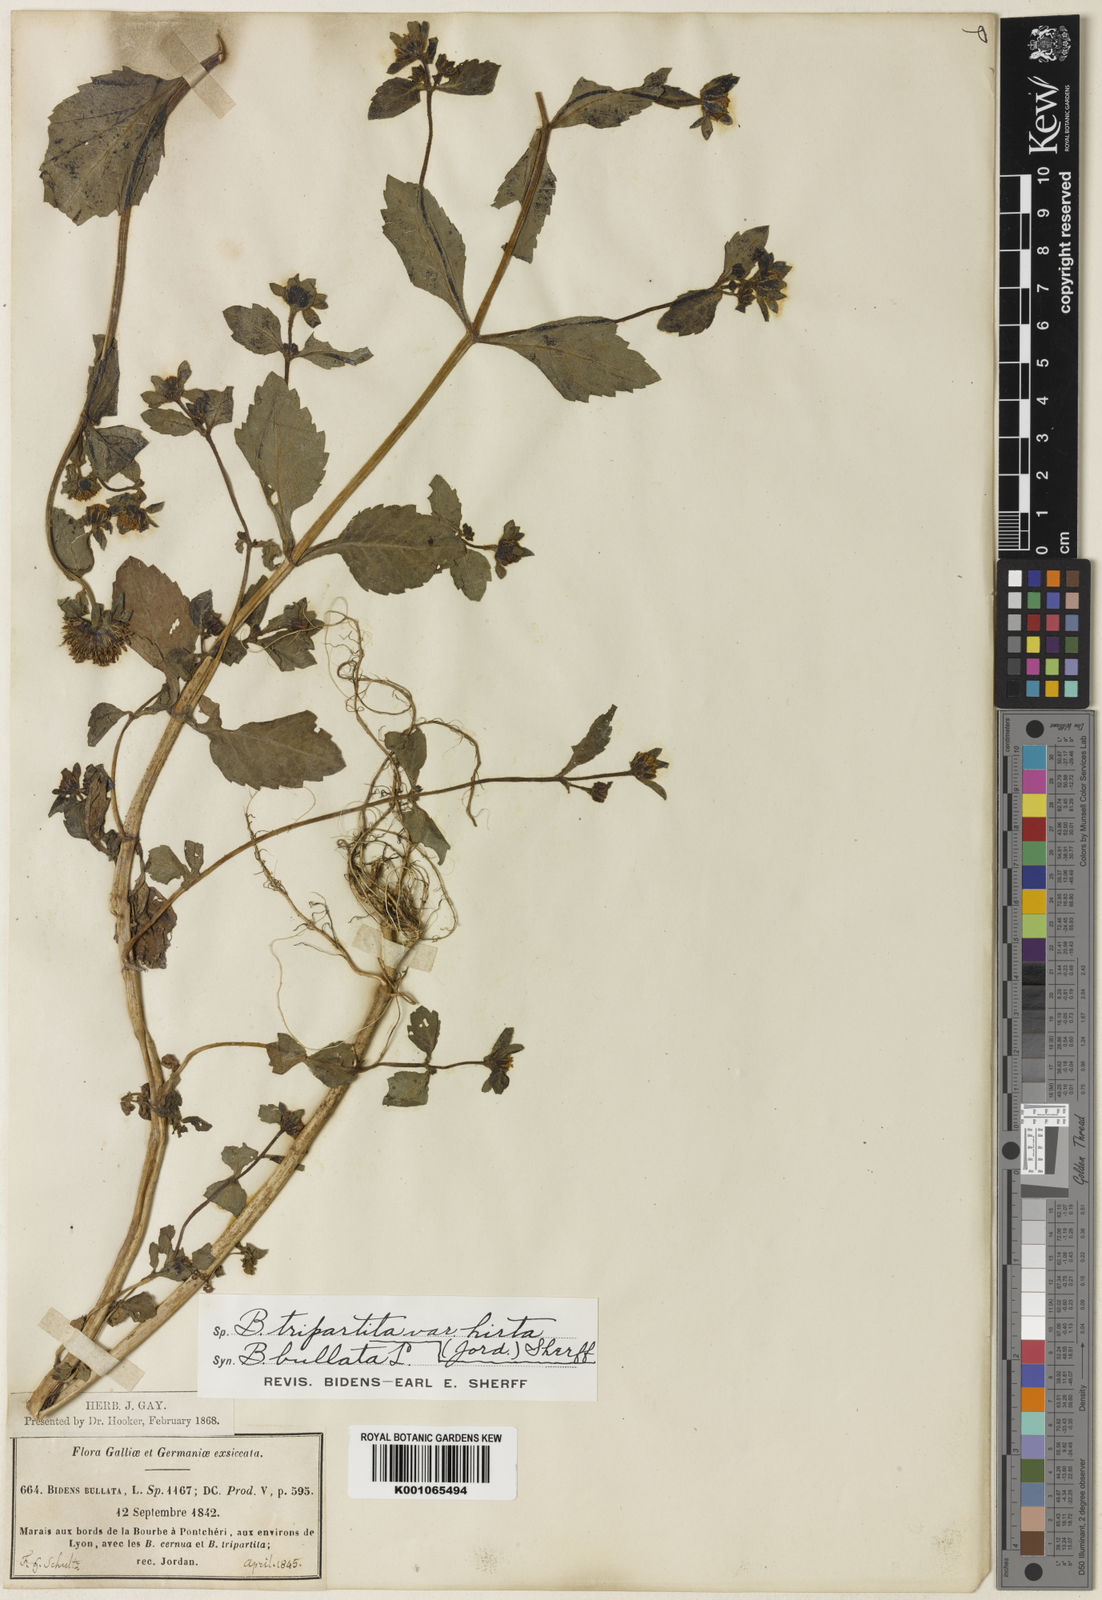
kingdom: Plantae
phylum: Tracheophyta
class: Magnoliopsida
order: Asterales
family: Asteraceae
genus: Bidens
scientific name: Bidens tripartita
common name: Trifid bur-marigold
